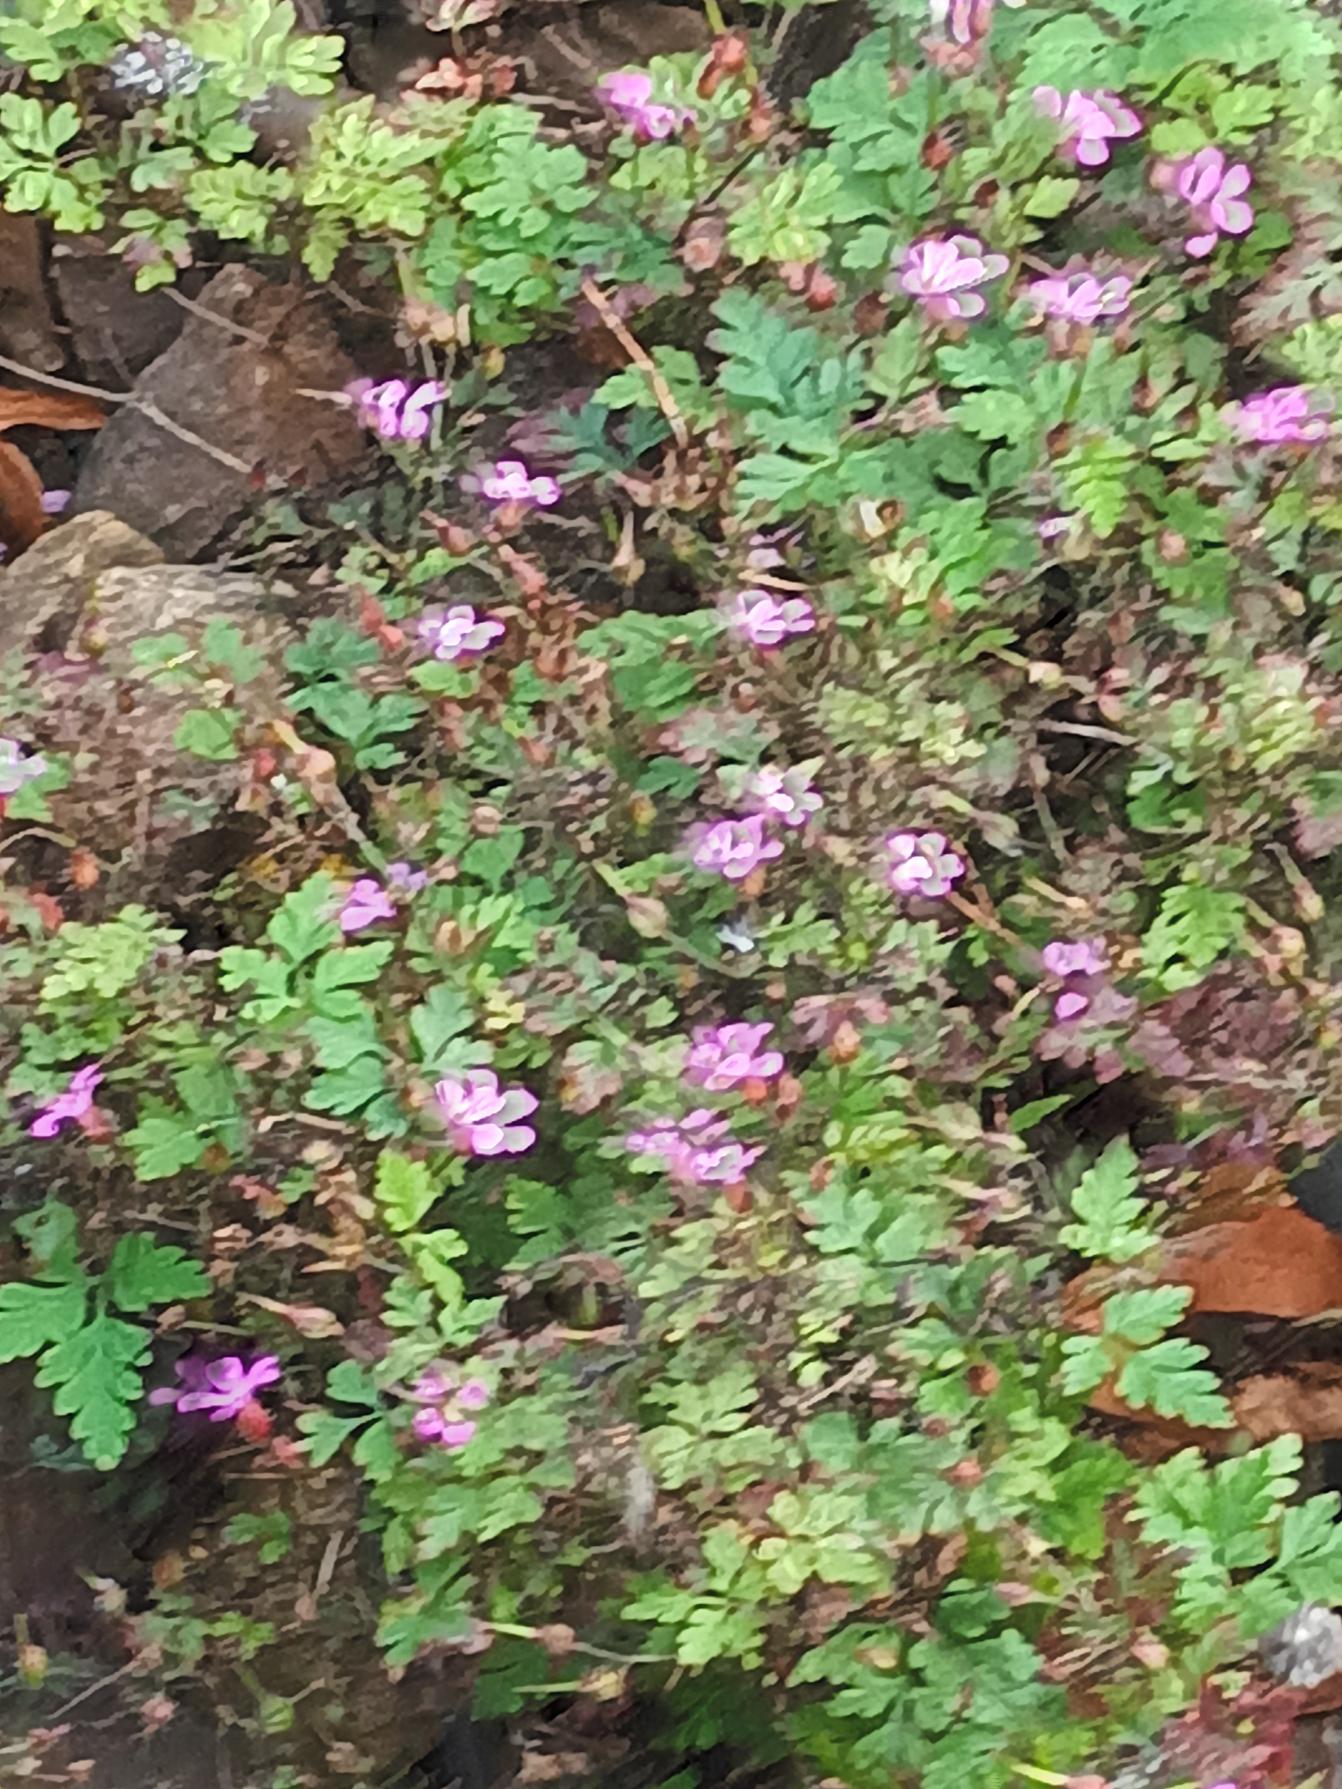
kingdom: Plantae
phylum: Tracheophyta
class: Magnoliopsida
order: Geraniales
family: Geraniaceae
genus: Geranium
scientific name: Geranium robertianum
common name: Stinkende storkenæb
